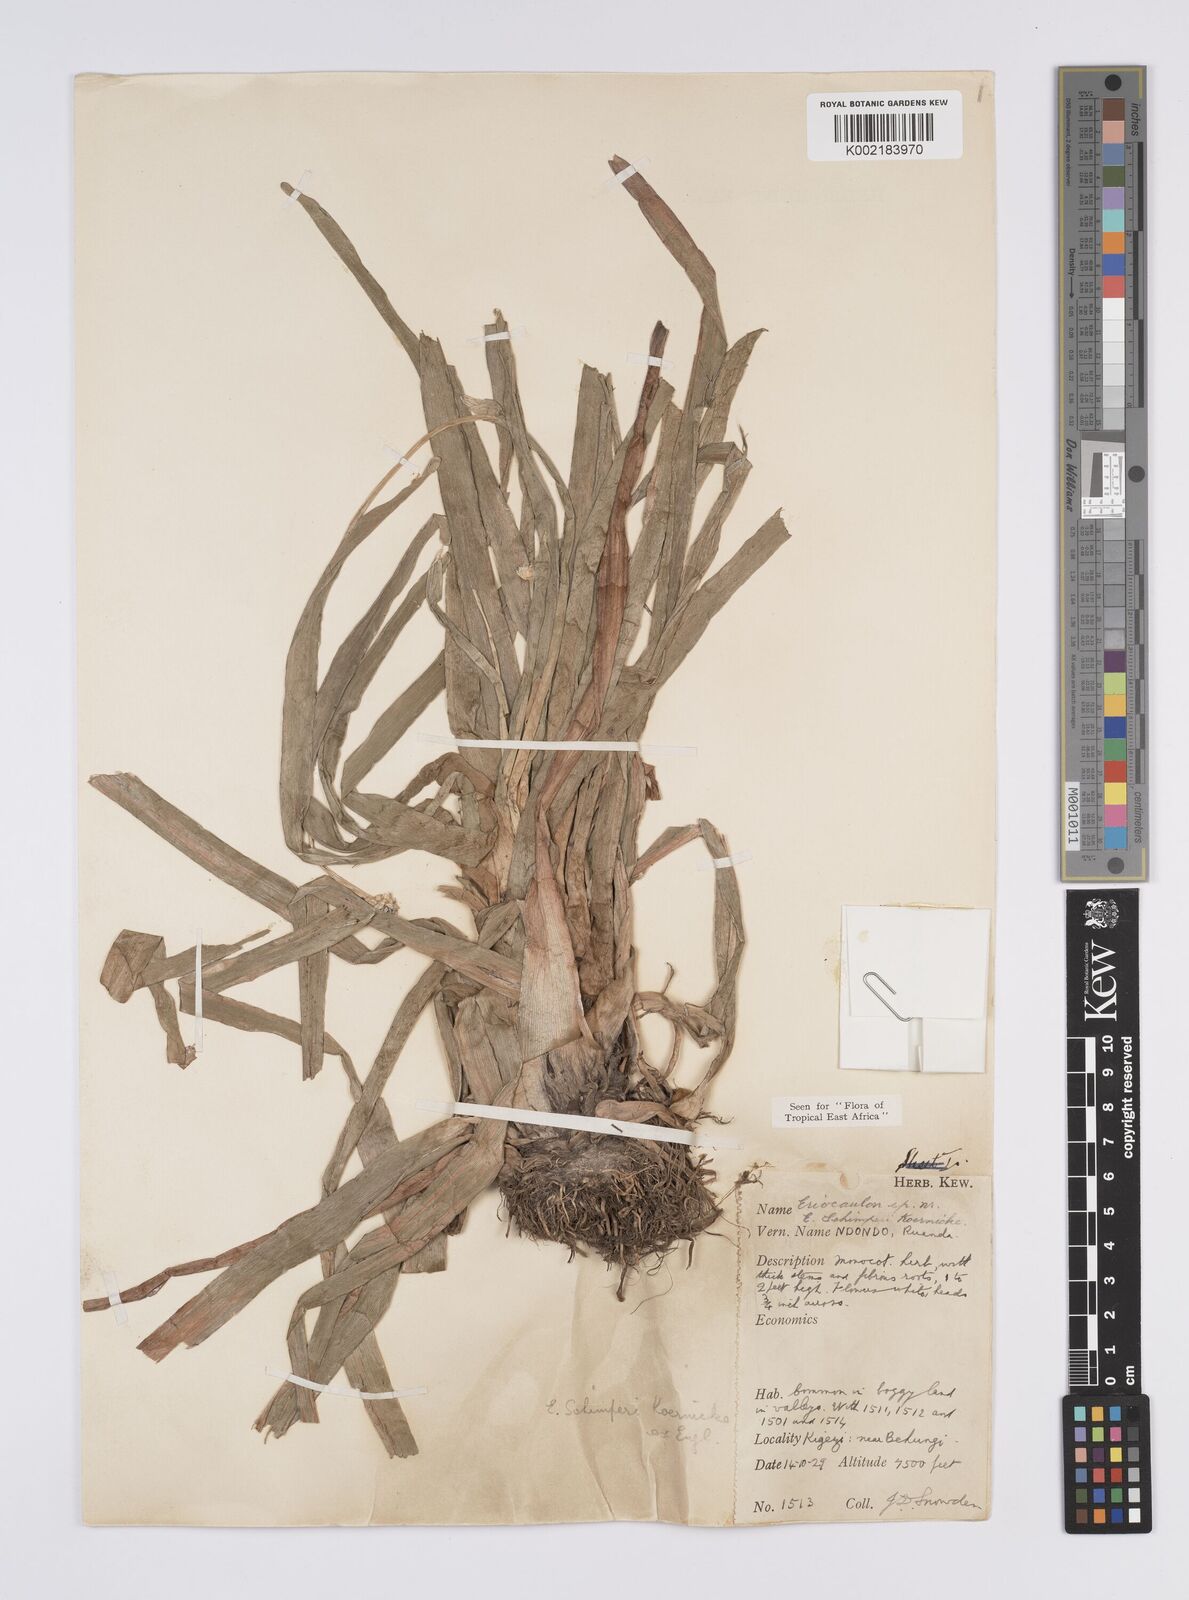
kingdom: Plantae
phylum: Tracheophyta
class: Liliopsida
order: Poales
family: Eriocaulaceae
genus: Eriocaulon
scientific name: Eriocaulon schimperi
